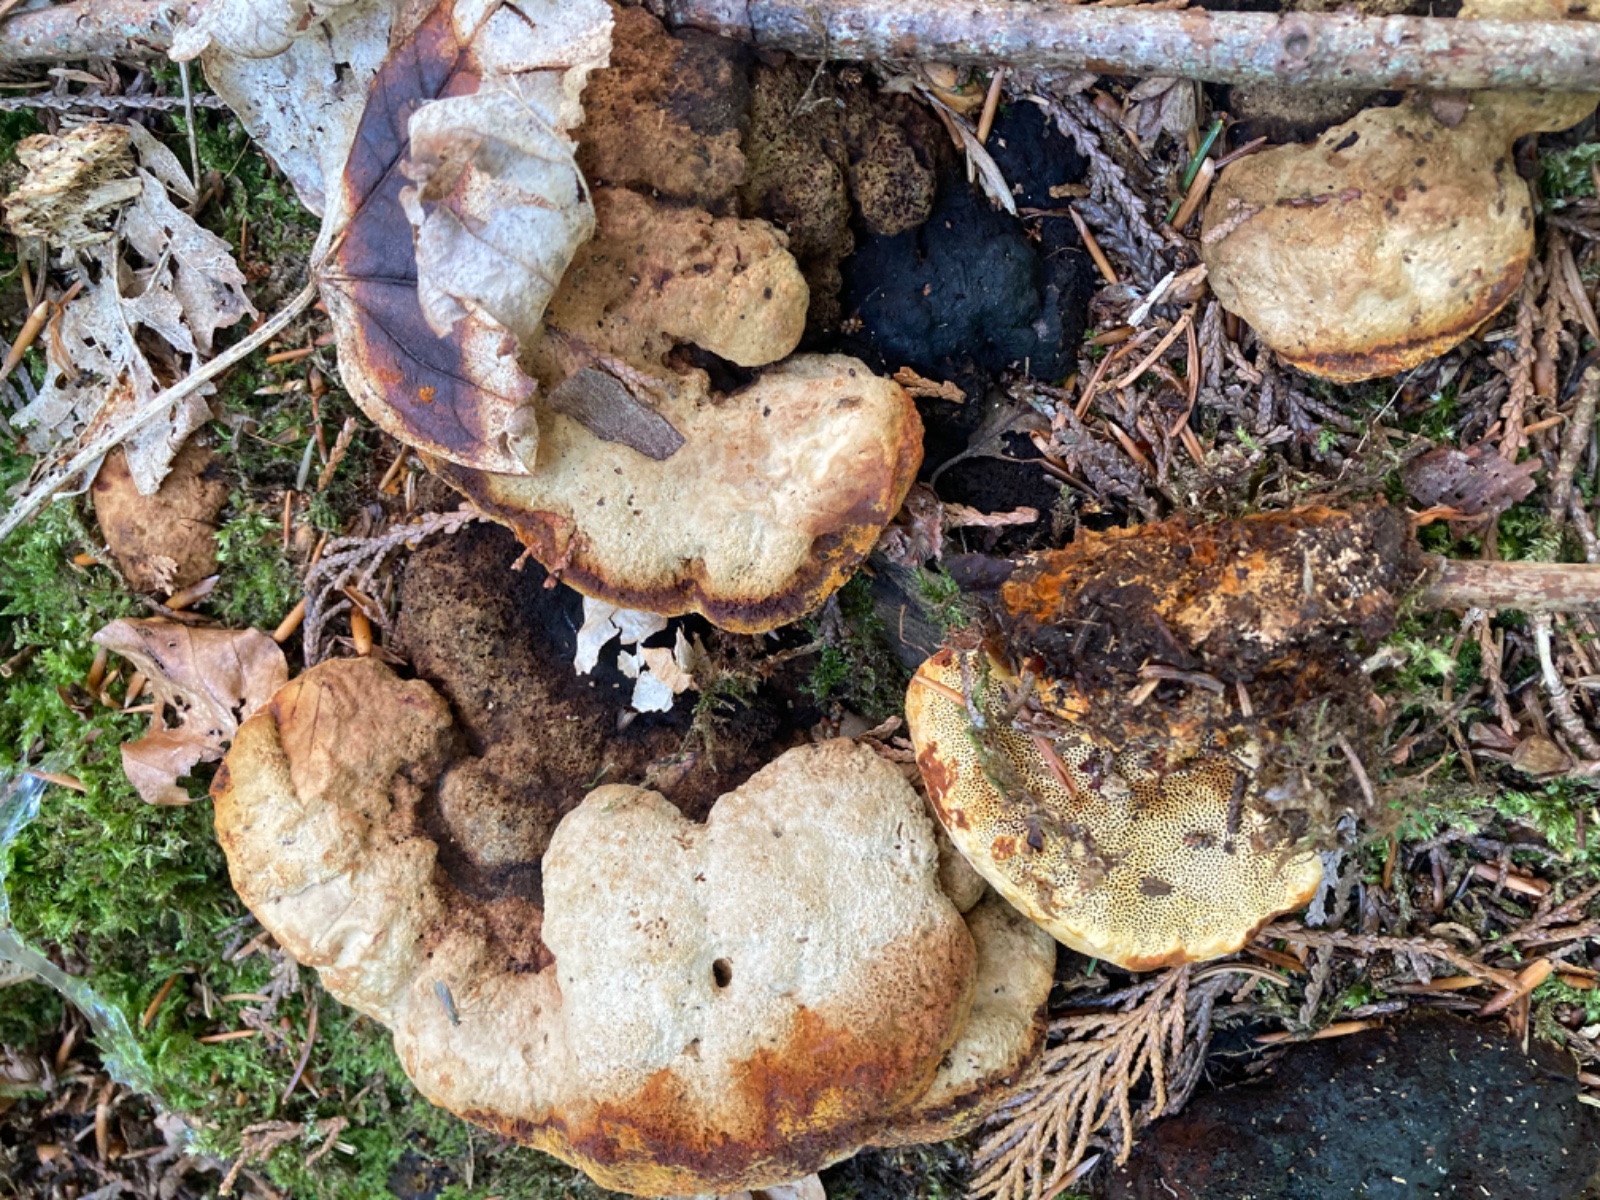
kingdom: Fungi
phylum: Basidiomycota
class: Agaricomycetes
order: Gloeophyllales
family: Gloeophyllaceae
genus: Gloeophyllum
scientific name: Gloeophyllum odoratum
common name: duftende korkhat
